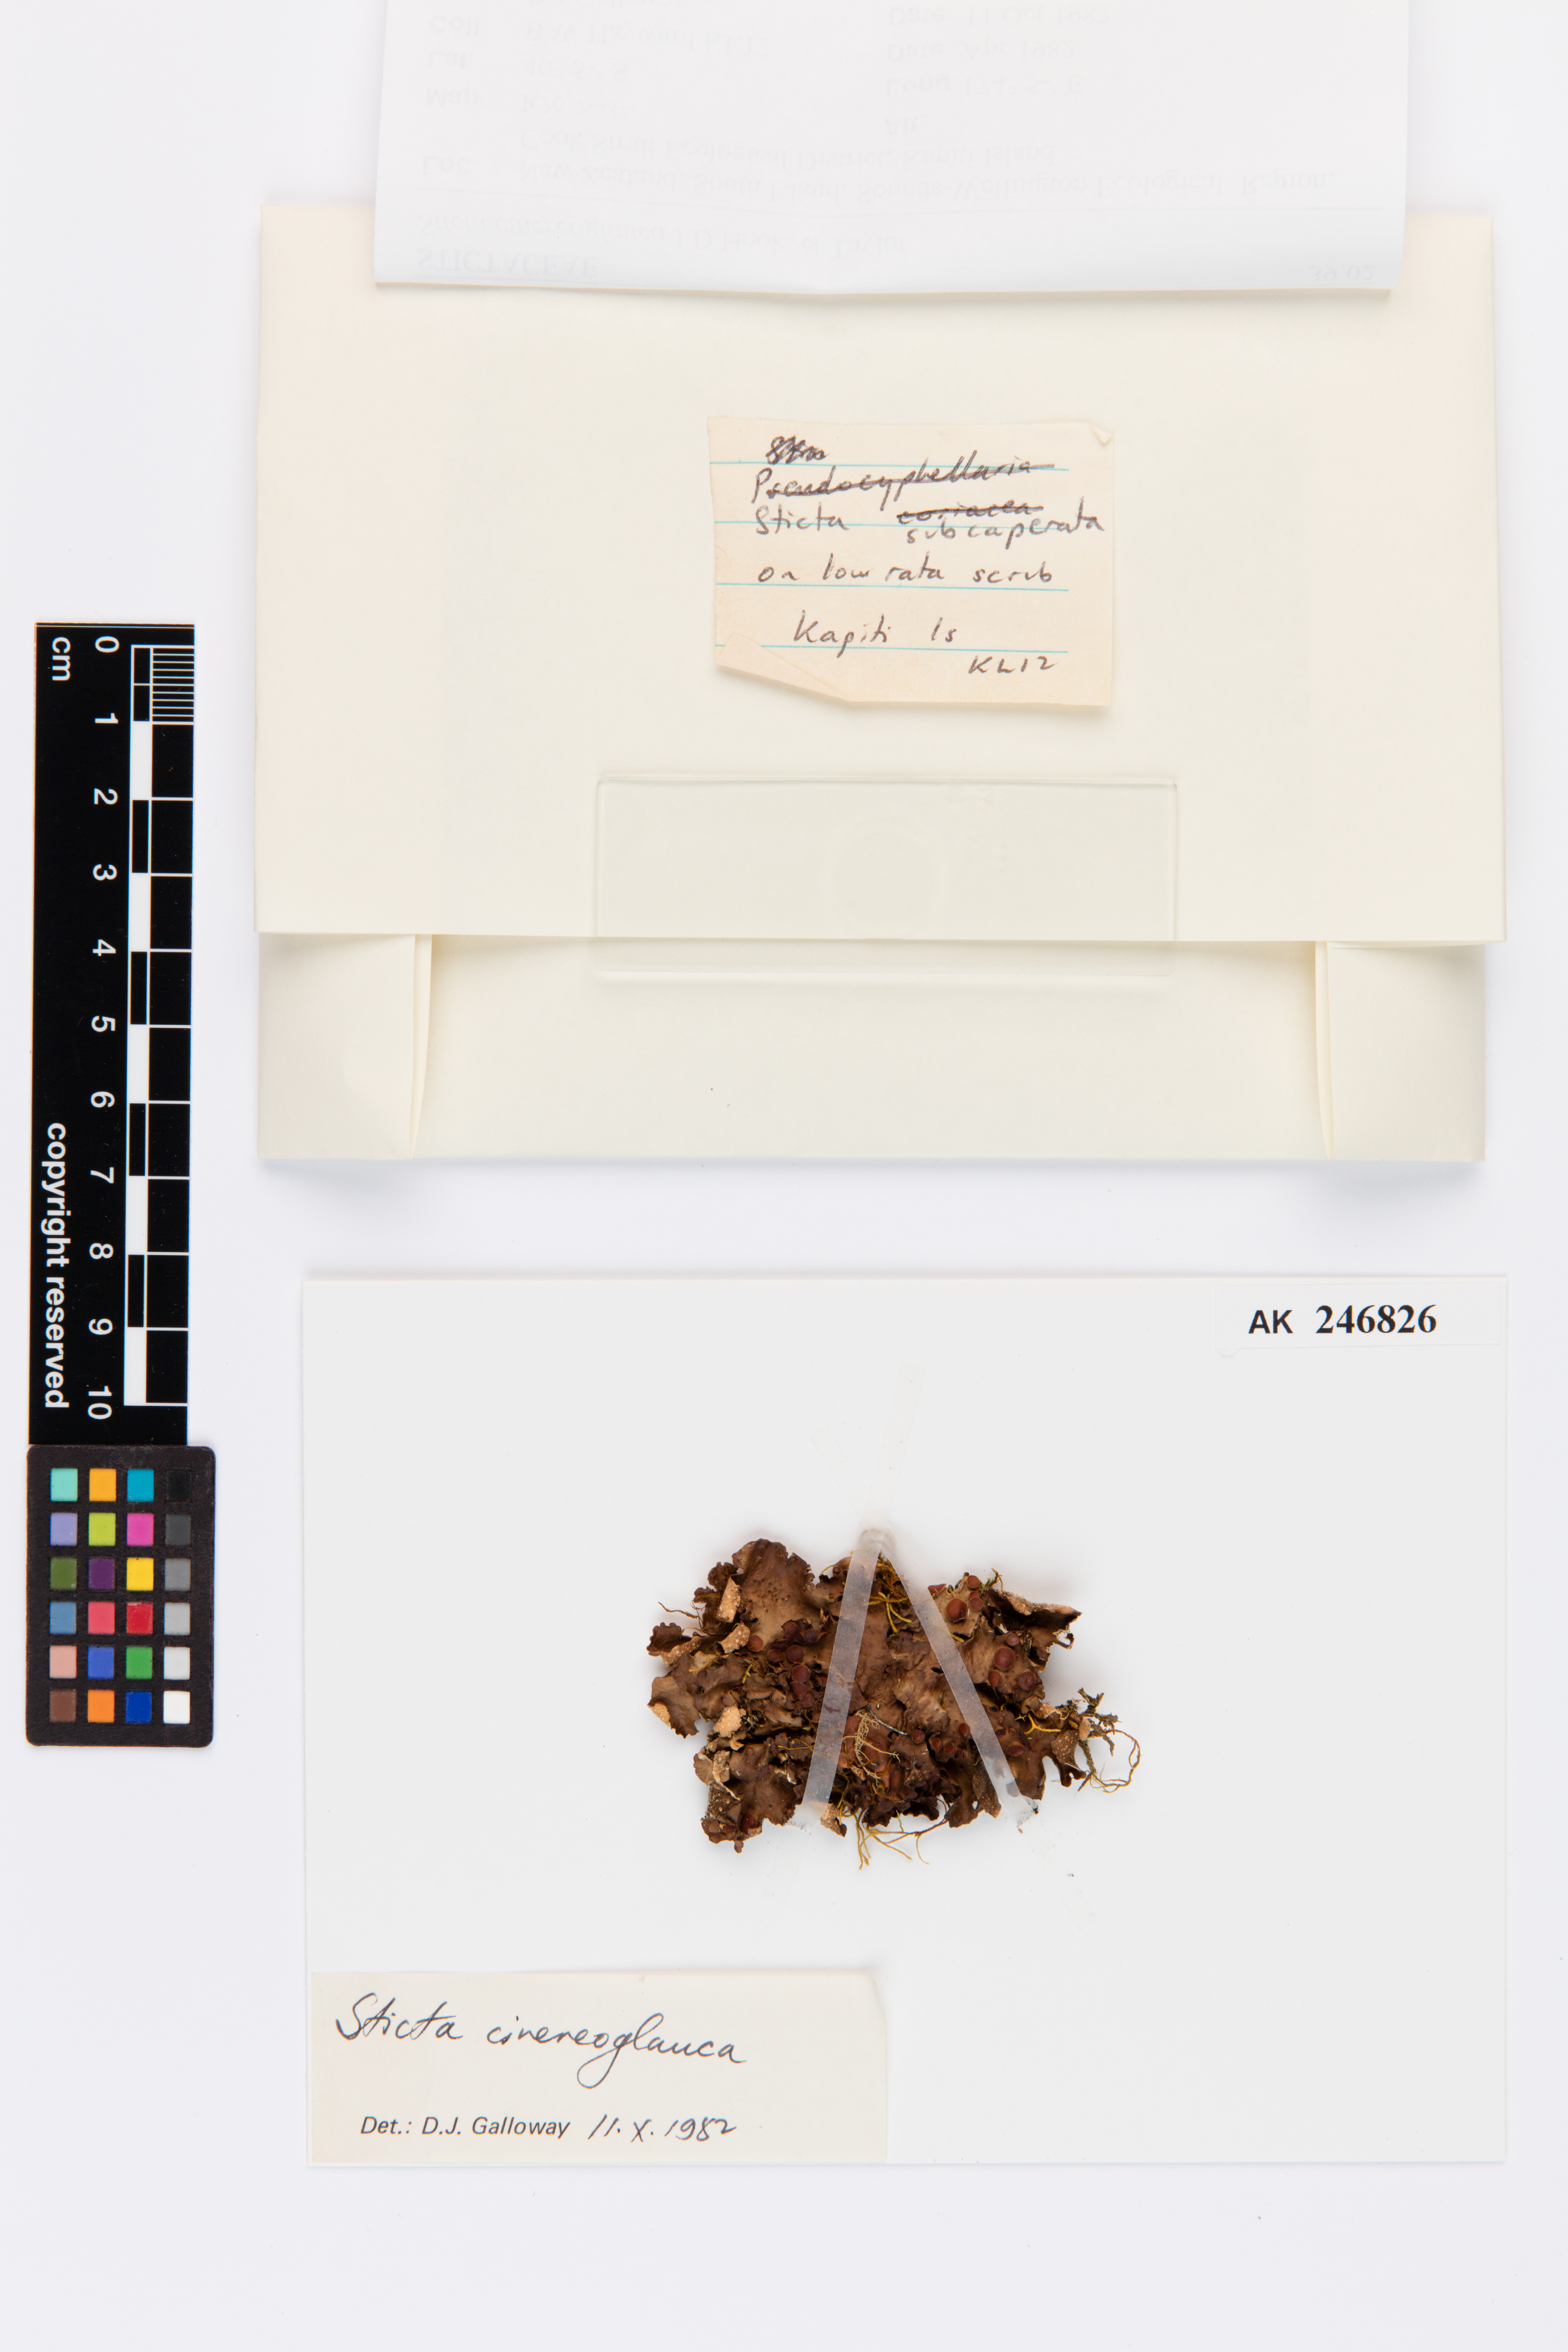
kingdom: Fungi
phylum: Ascomycota
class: Lecanoromycetes
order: Peltigerales
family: Lobariaceae
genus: Sticta
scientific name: Sticta cinereoglauca
